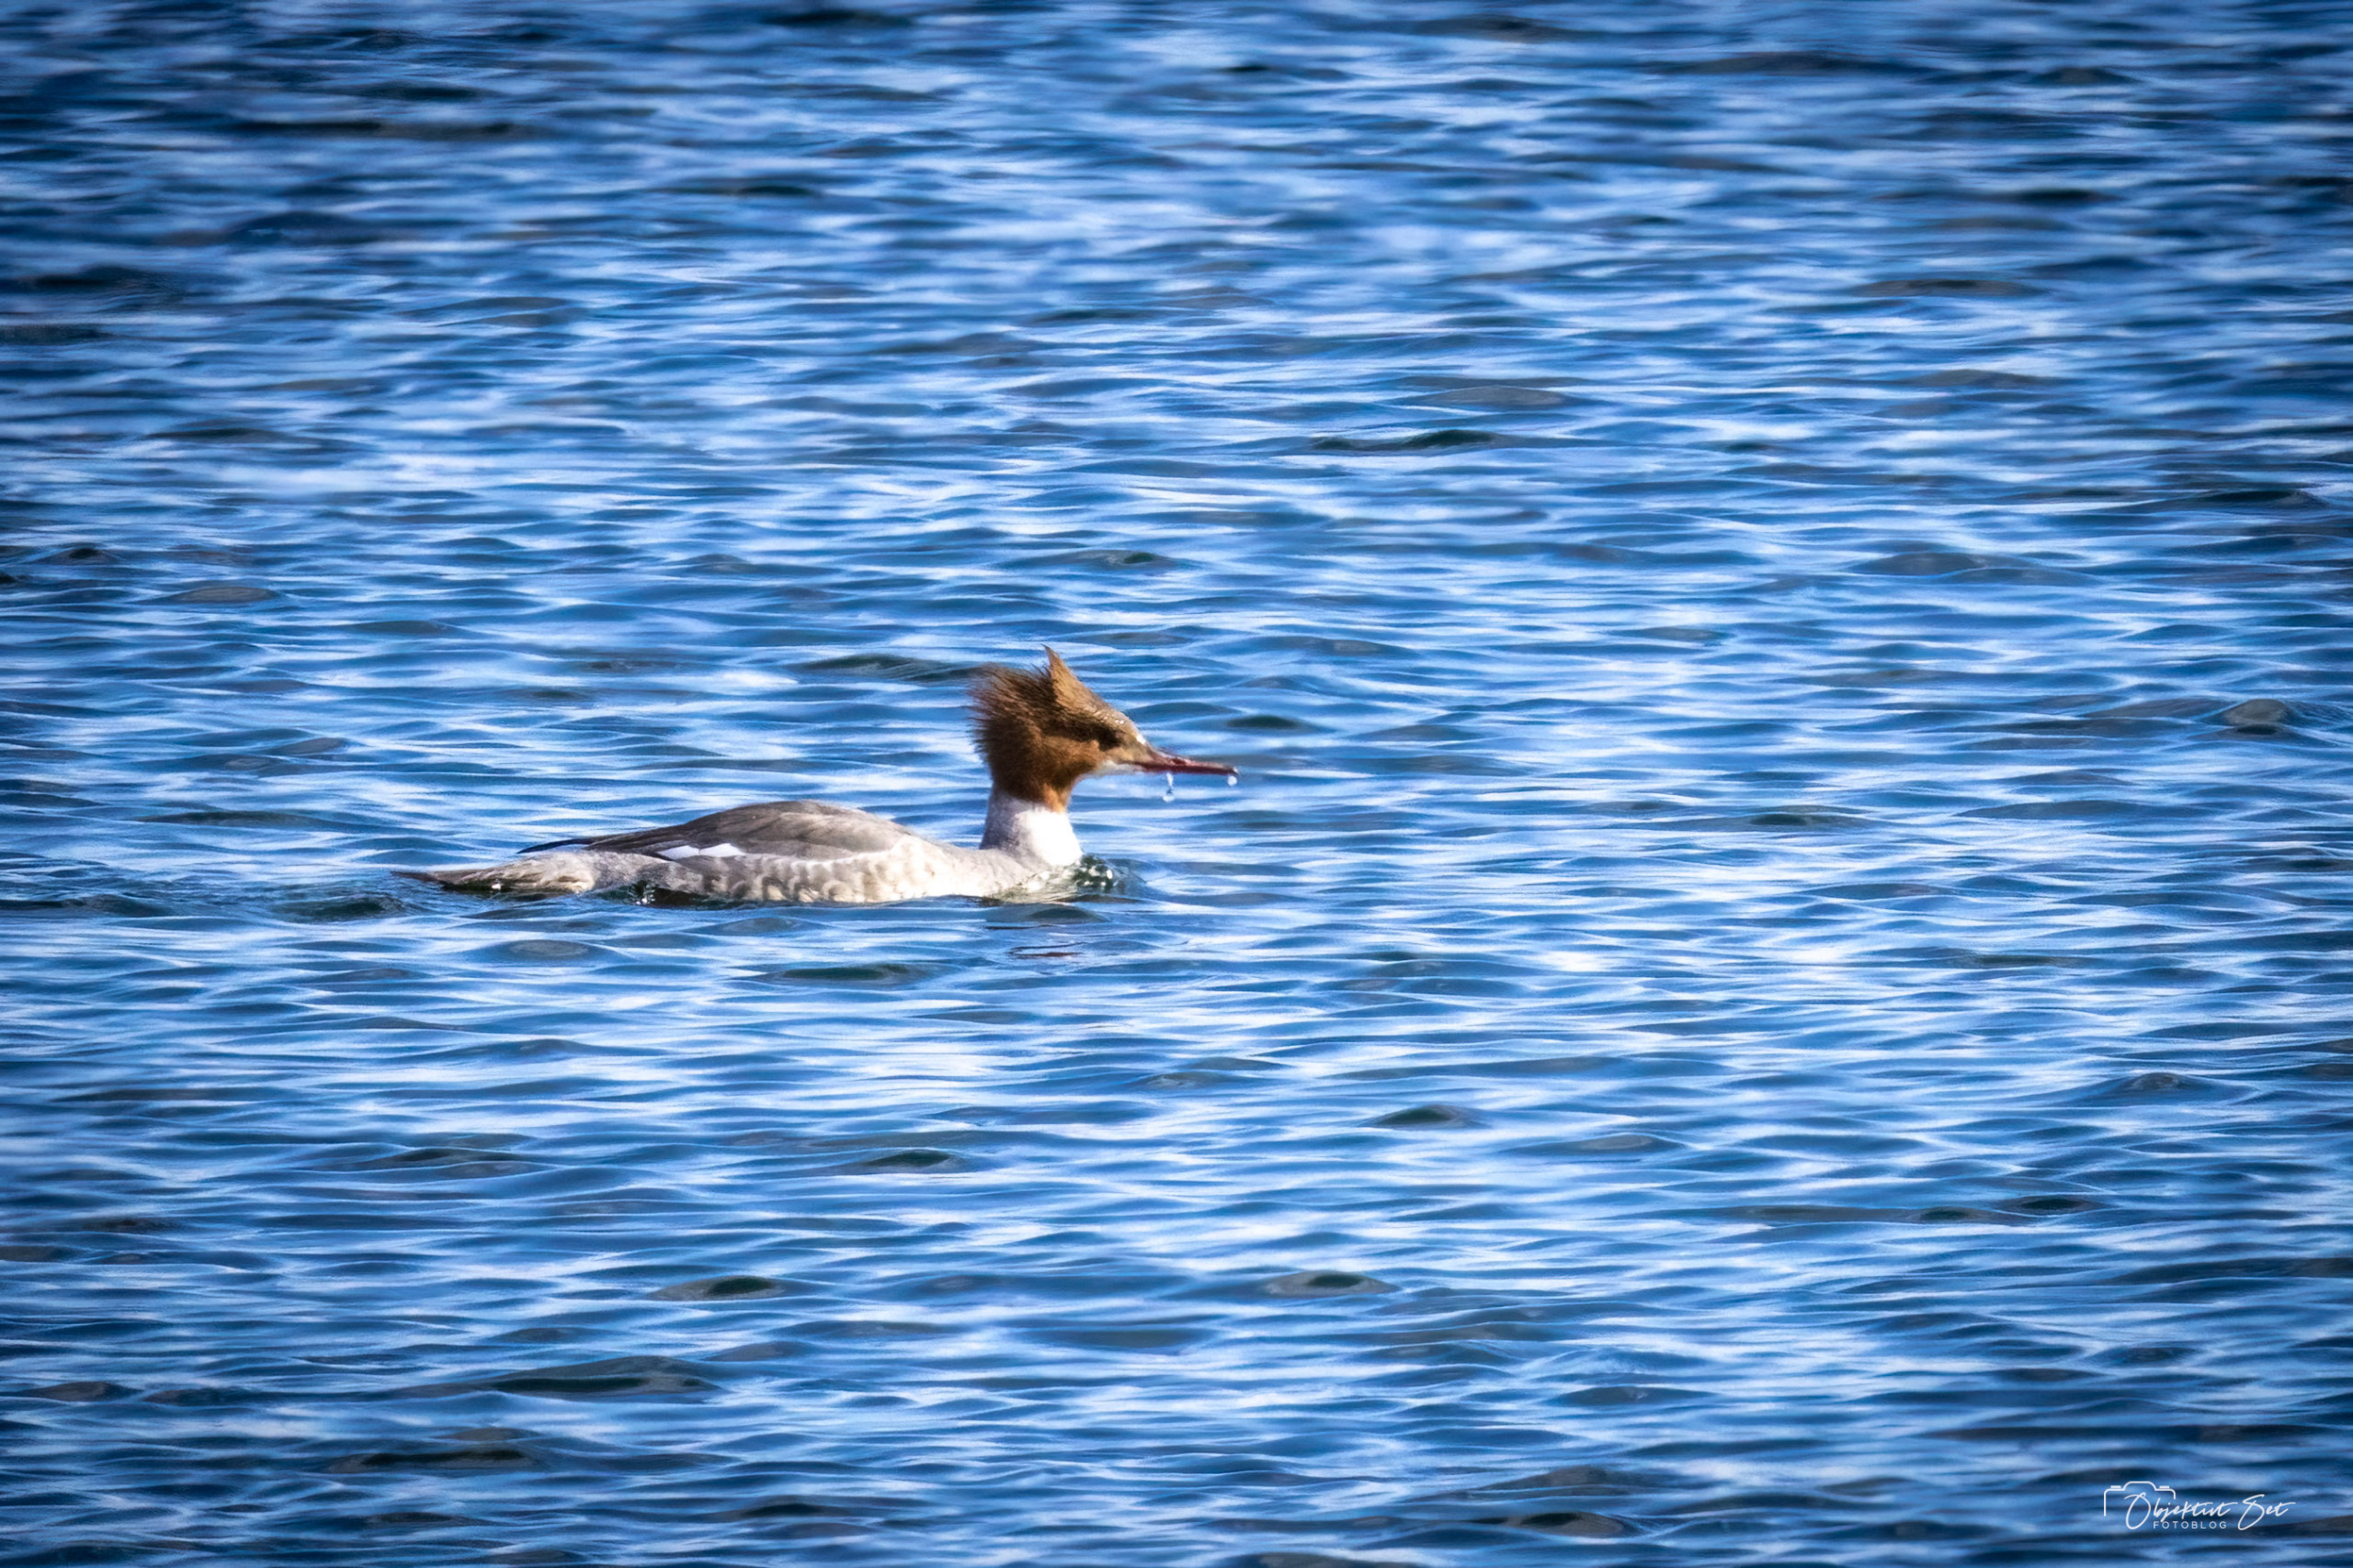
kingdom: Animalia
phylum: Chordata
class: Aves
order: Anseriformes
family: Anatidae
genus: Mergus
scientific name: Mergus merganser
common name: Stor skallesluger
